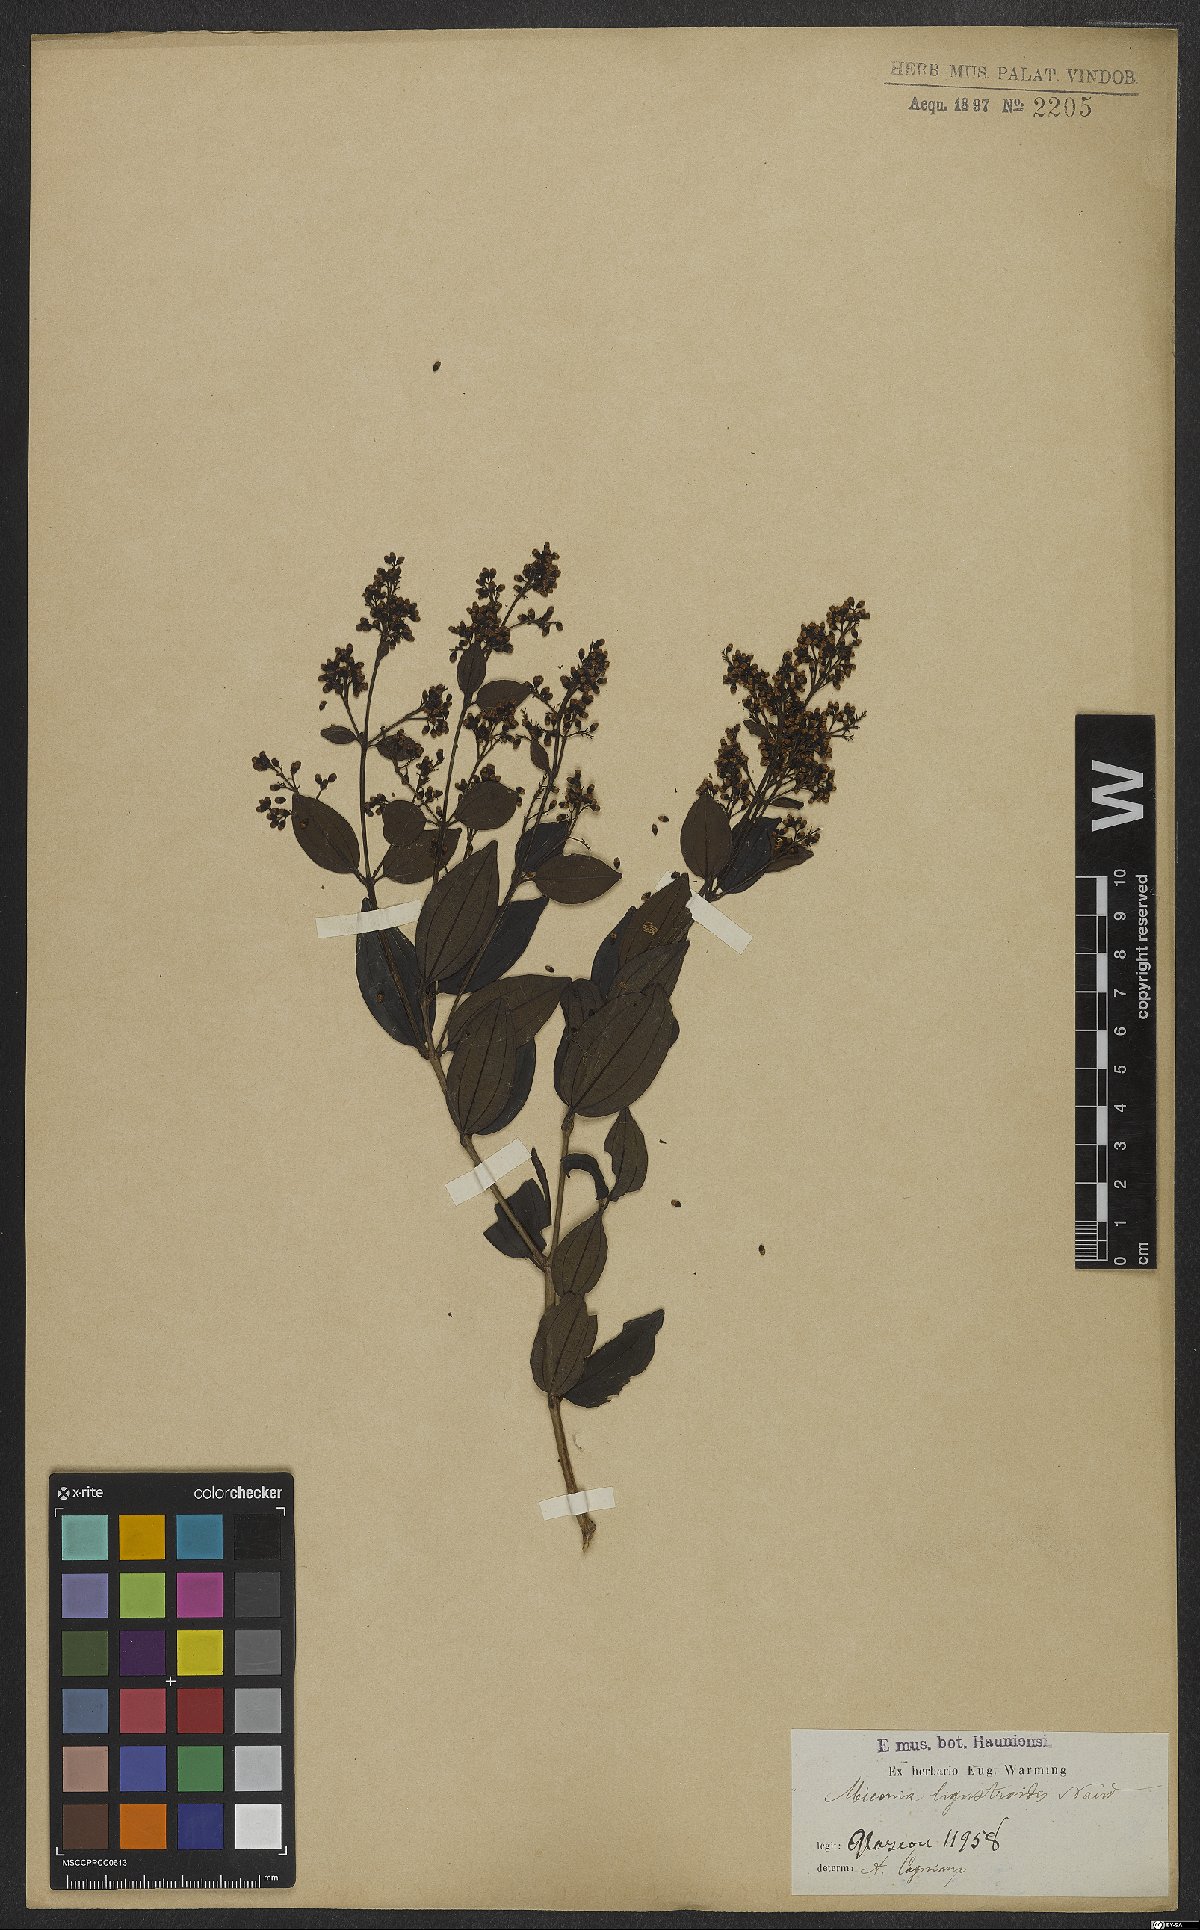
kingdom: Plantae
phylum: Tracheophyta
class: Magnoliopsida
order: Myrtales
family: Melastomataceae
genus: Miconia
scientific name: Miconia ligustroides
